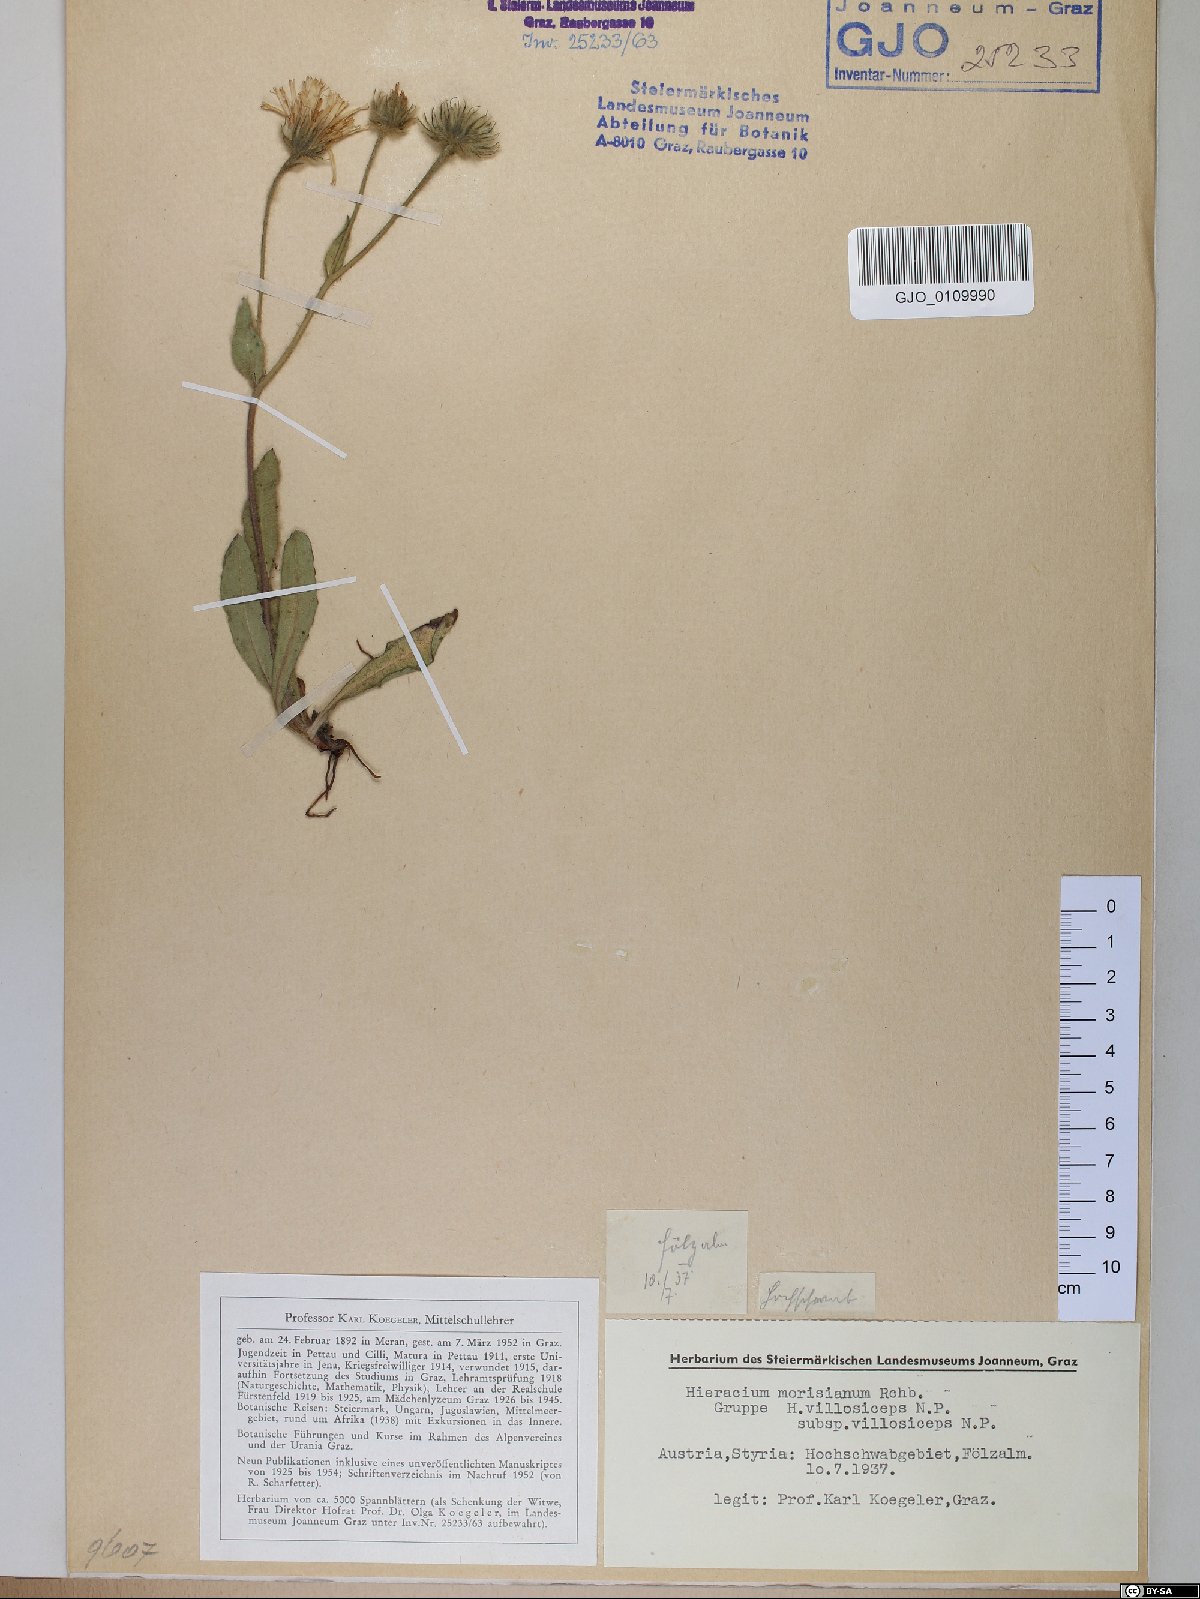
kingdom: Plantae
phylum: Tracheophyta
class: Magnoliopsida
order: Asterales
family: Asteraceae
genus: Hieracium
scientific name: Hieracium pilosum
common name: Fimbriate-pitted hawkweed
